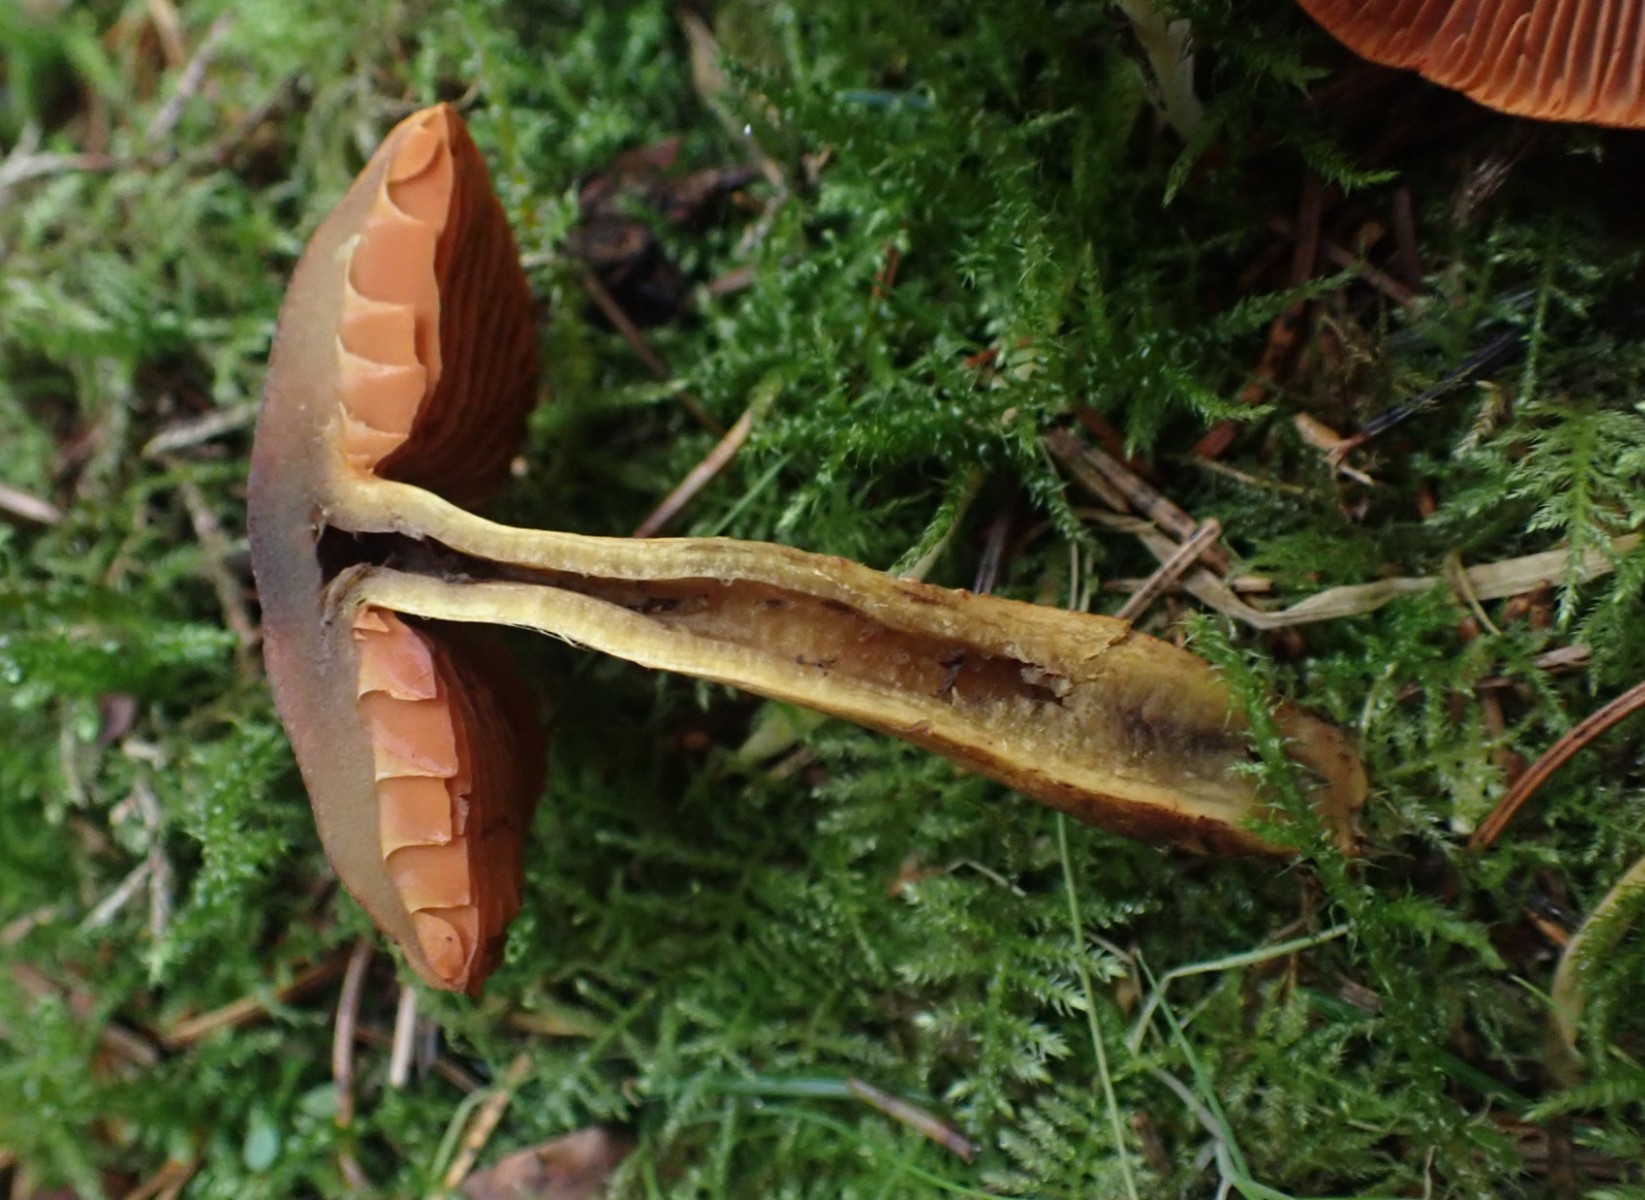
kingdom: Fungi
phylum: Basidiomycota
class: Agaricomycetes
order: Agaricales
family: Cortinariaceae
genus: Cortinarius
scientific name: Cortinarius malicorius
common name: grønkødet slørhat
